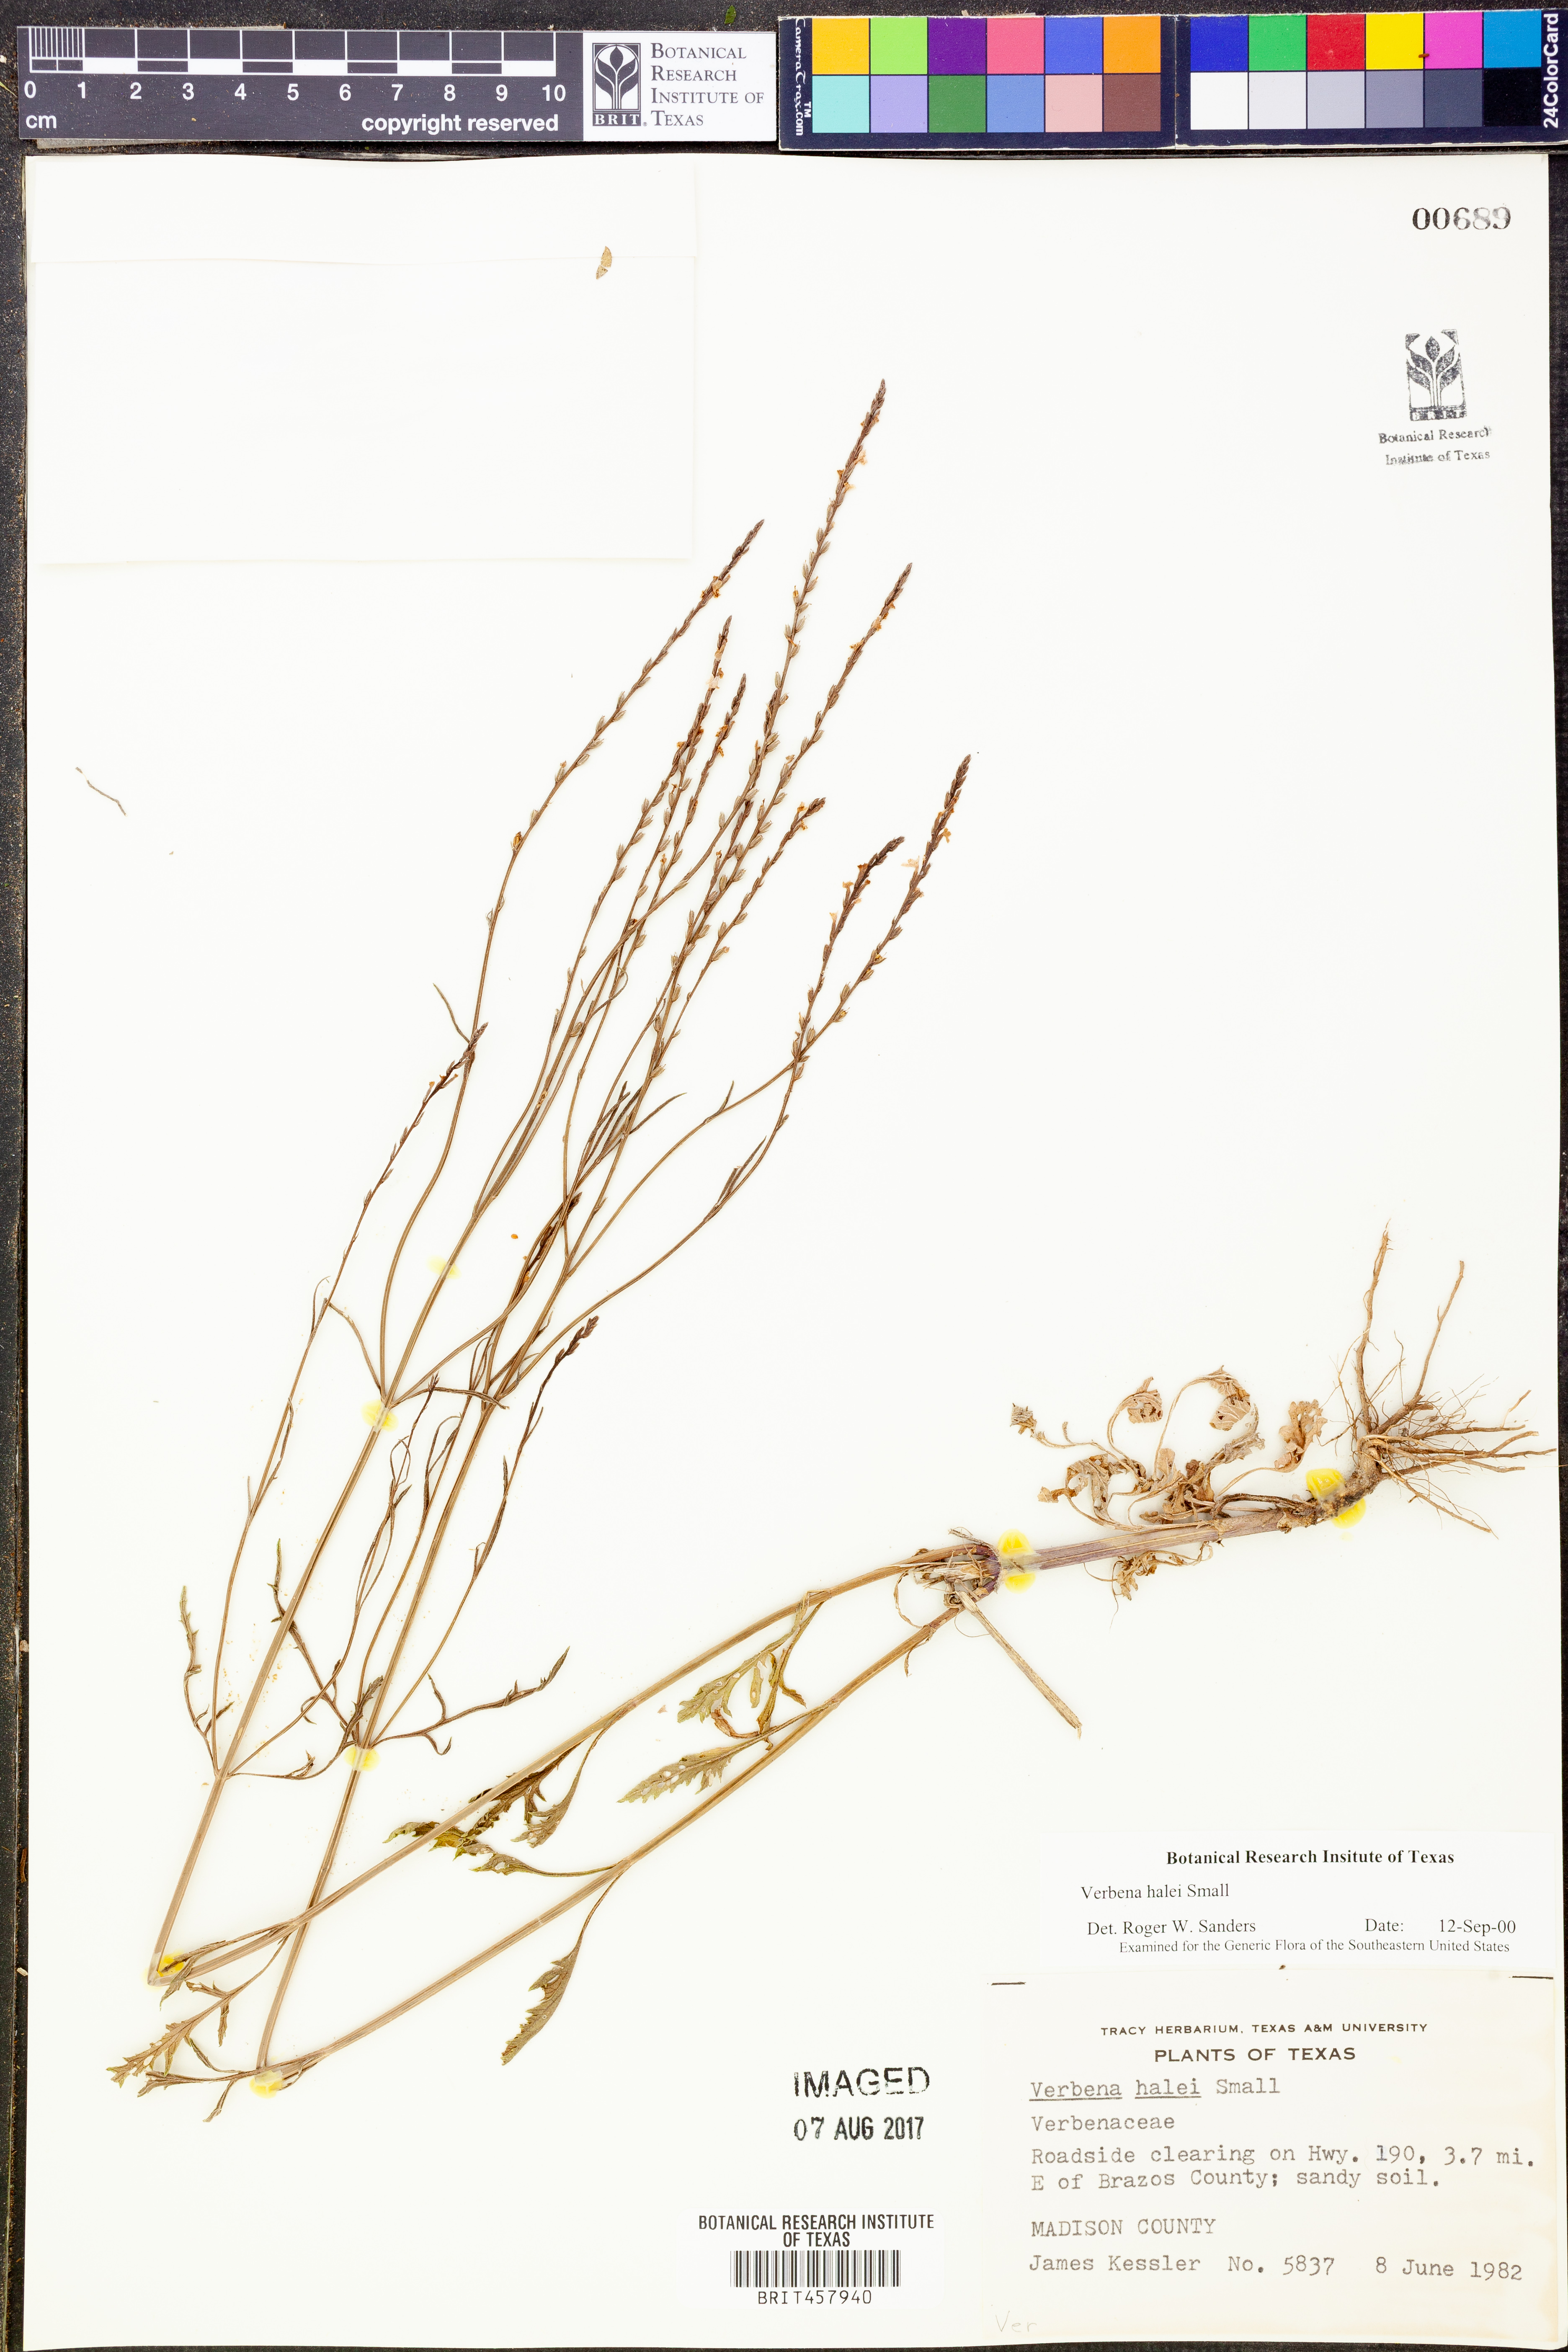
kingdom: Plantae
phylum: Tracheophyta
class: Magnoliopsida
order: Lamiales
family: Verbenaceae
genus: Verbena
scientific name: Verbena halei
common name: Texas vervain
